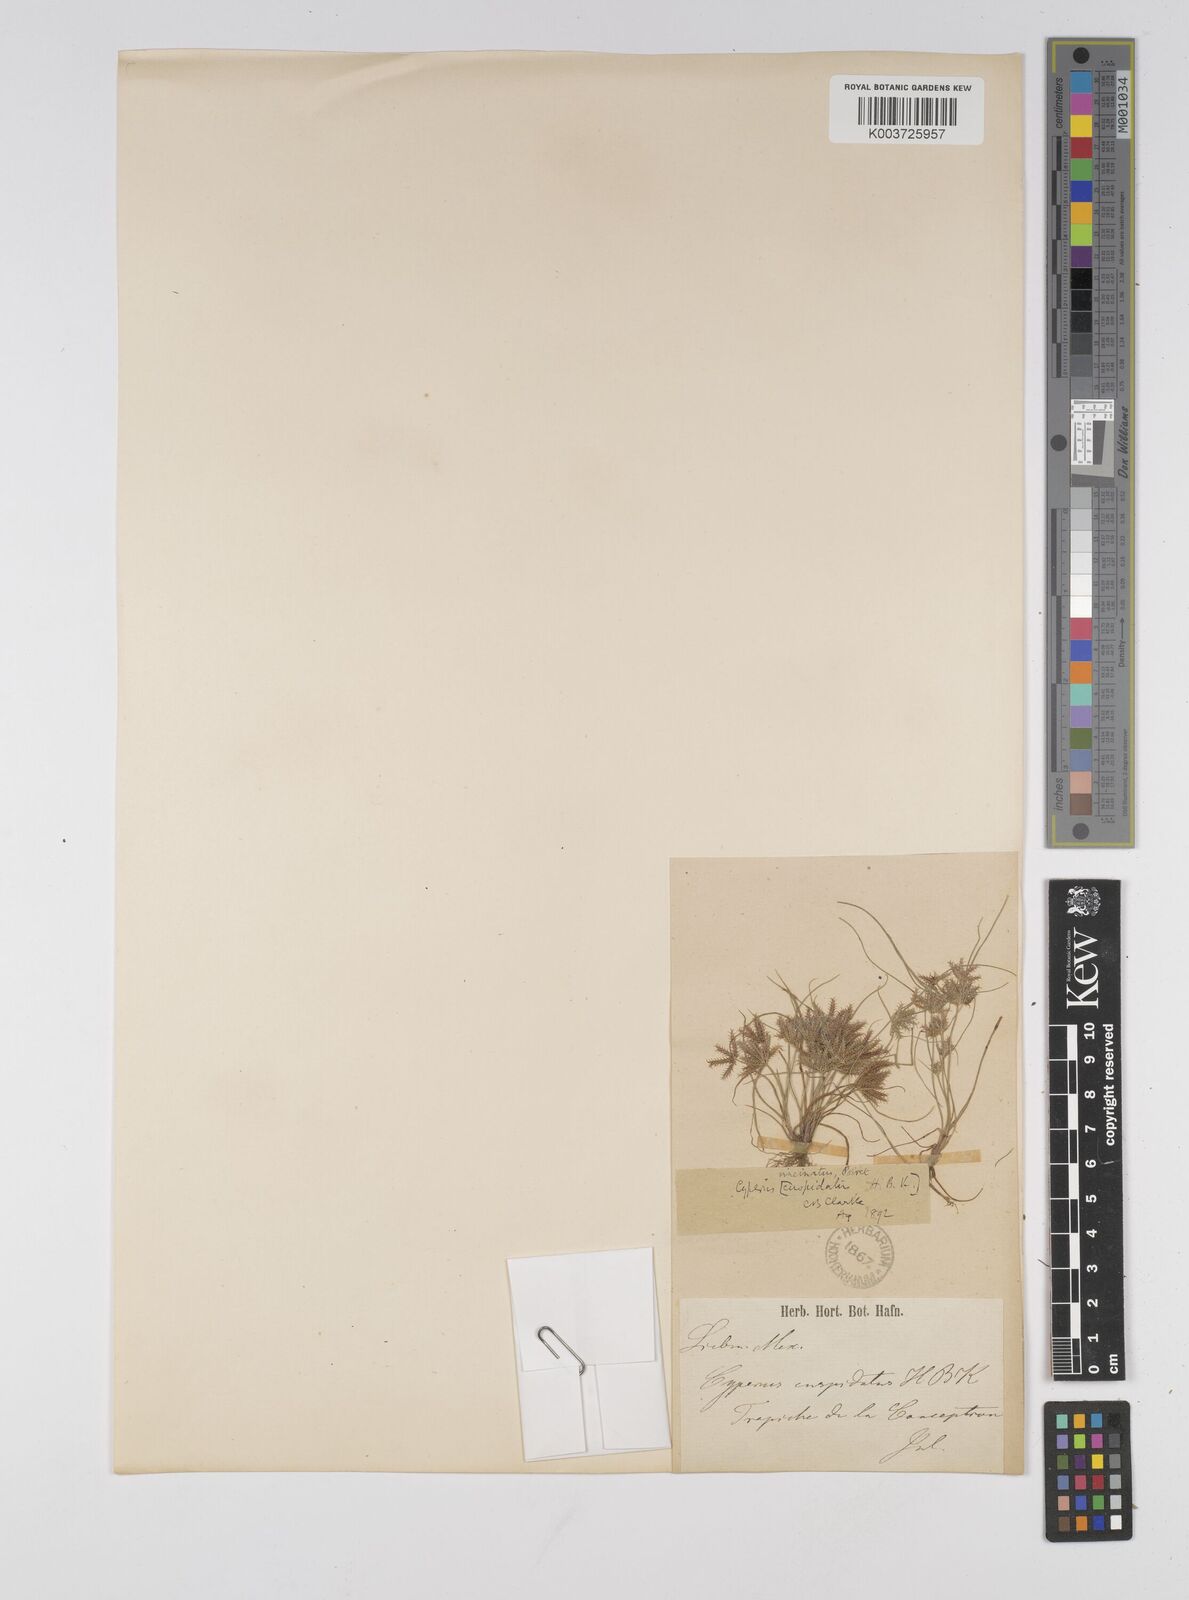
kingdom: Plantae
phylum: Tracheophyta
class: Liliopsida
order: Poales
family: Cyperaceae
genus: Cyperus
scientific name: Cyperus cuspidatus
